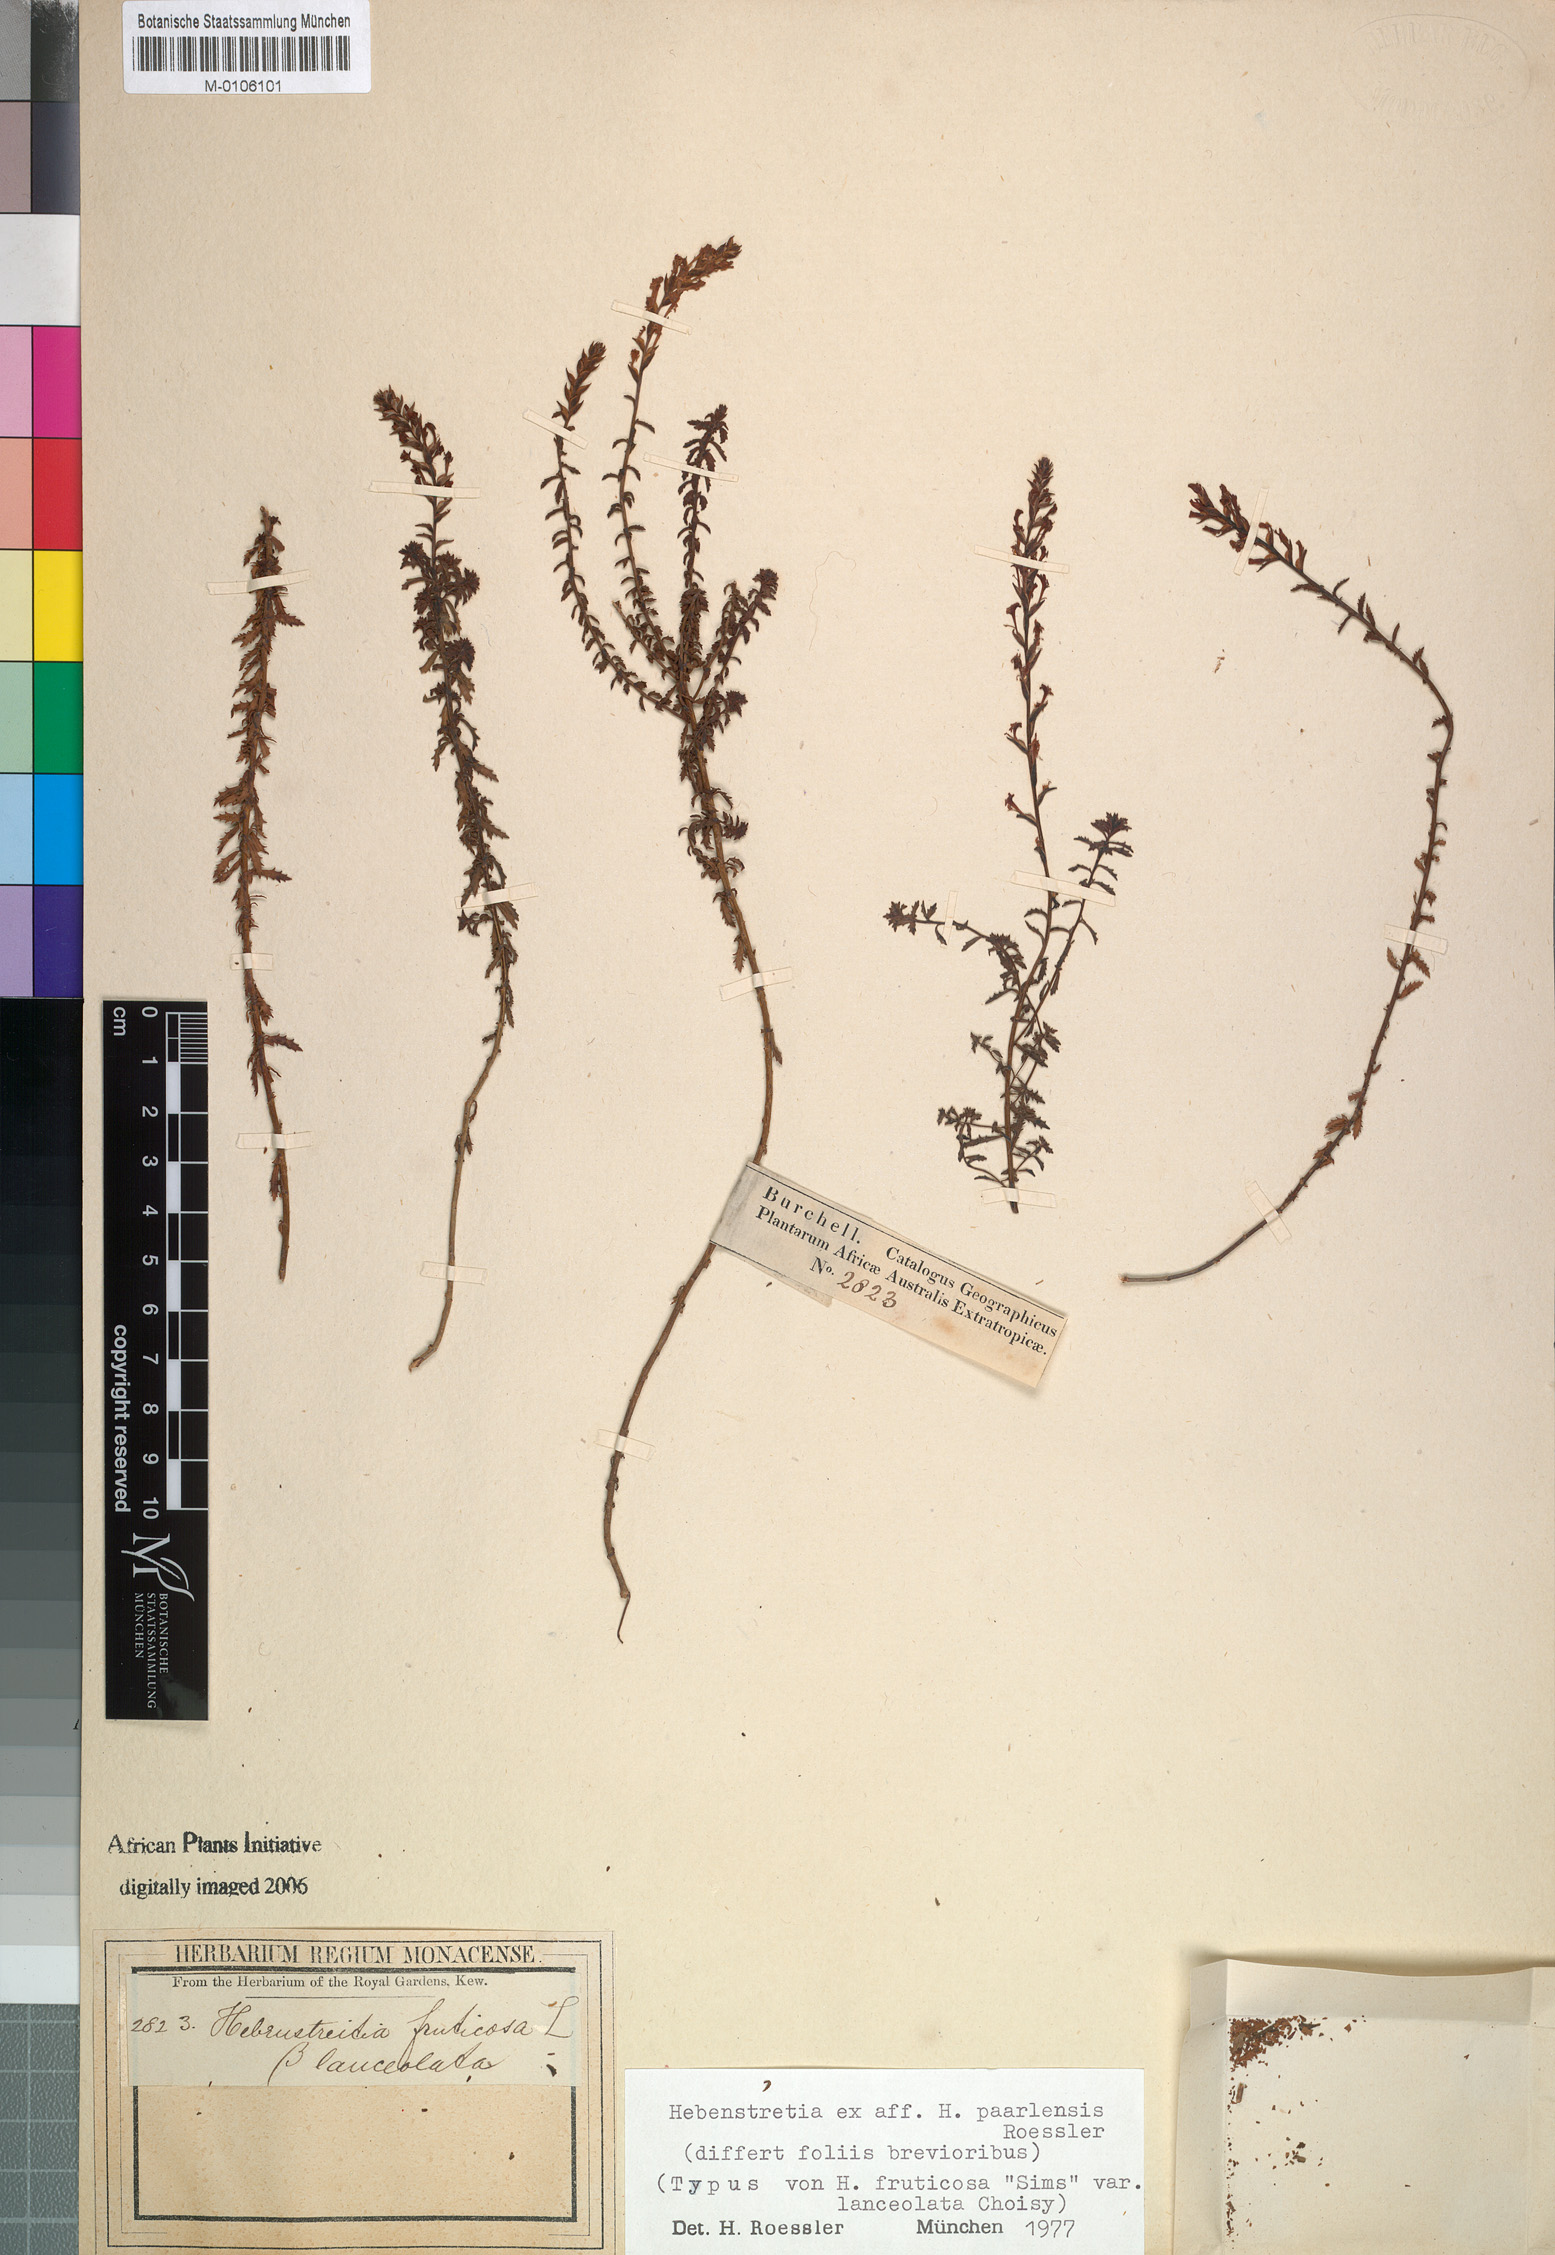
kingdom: Plantae
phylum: Tracheophyta
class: Magnoliopsida
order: Lamiales
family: Scrophulariaceae
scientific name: Scrophulariaceae
